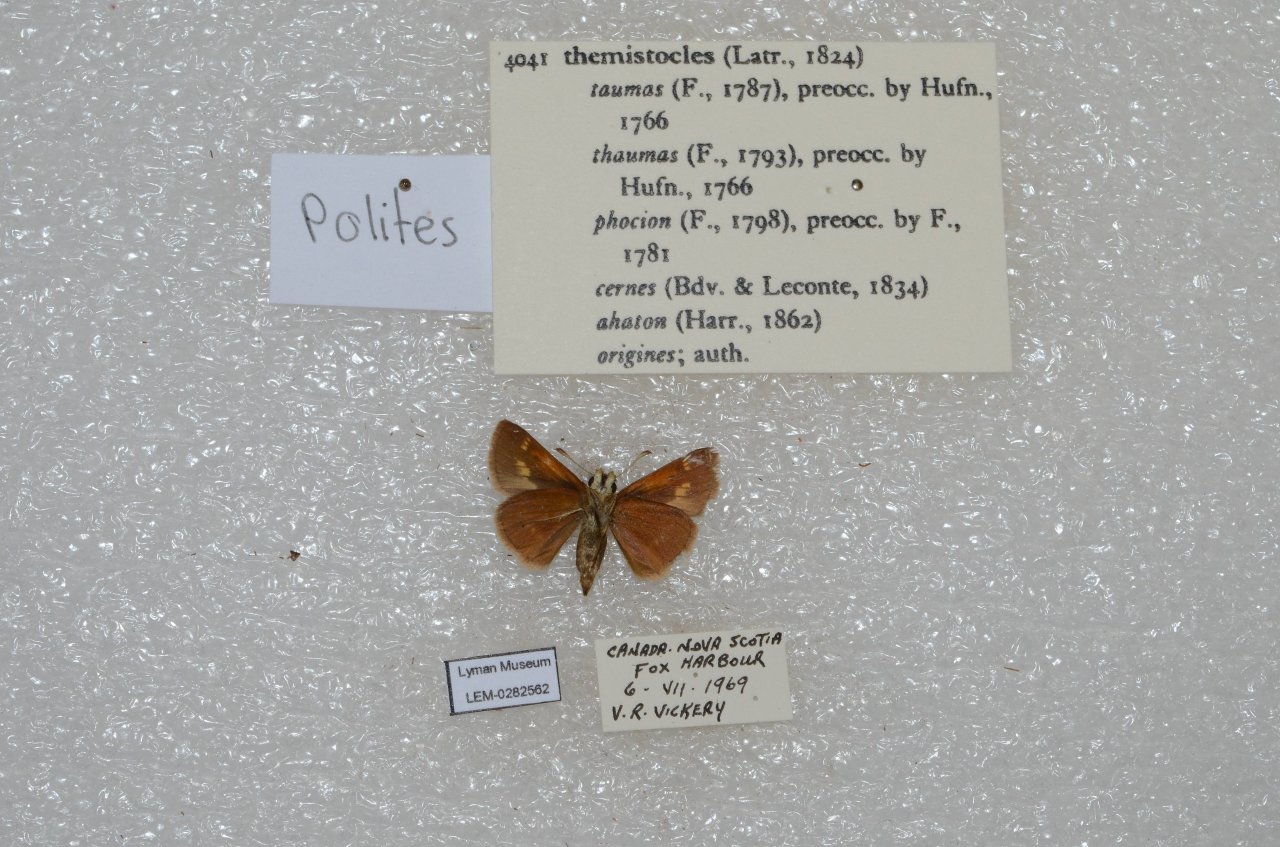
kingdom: Animalia
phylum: Arthropoda
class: Insecta
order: Lepidoptera
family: Hesperiidae
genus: Polites
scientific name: Polites themistocles
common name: Tawny-edged Skipper
